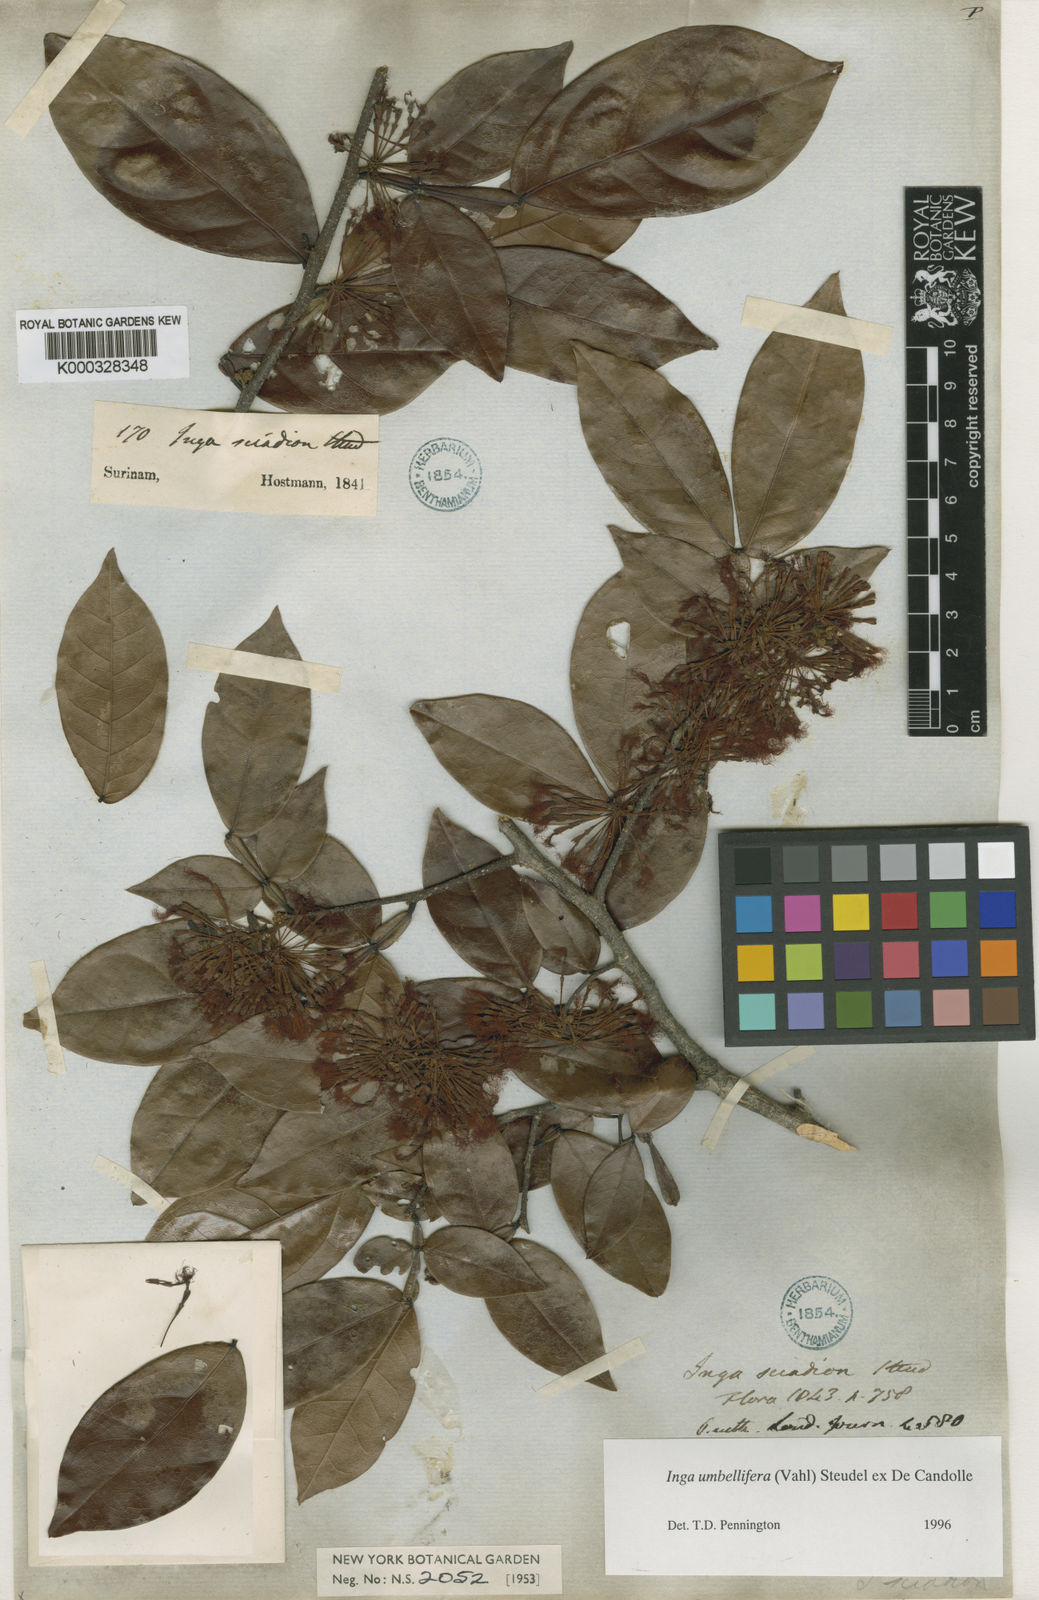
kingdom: Plantae
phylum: Tracheophyta
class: Magnoliopsida
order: Fabales
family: Fabaceae
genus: Inga
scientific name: Inga
